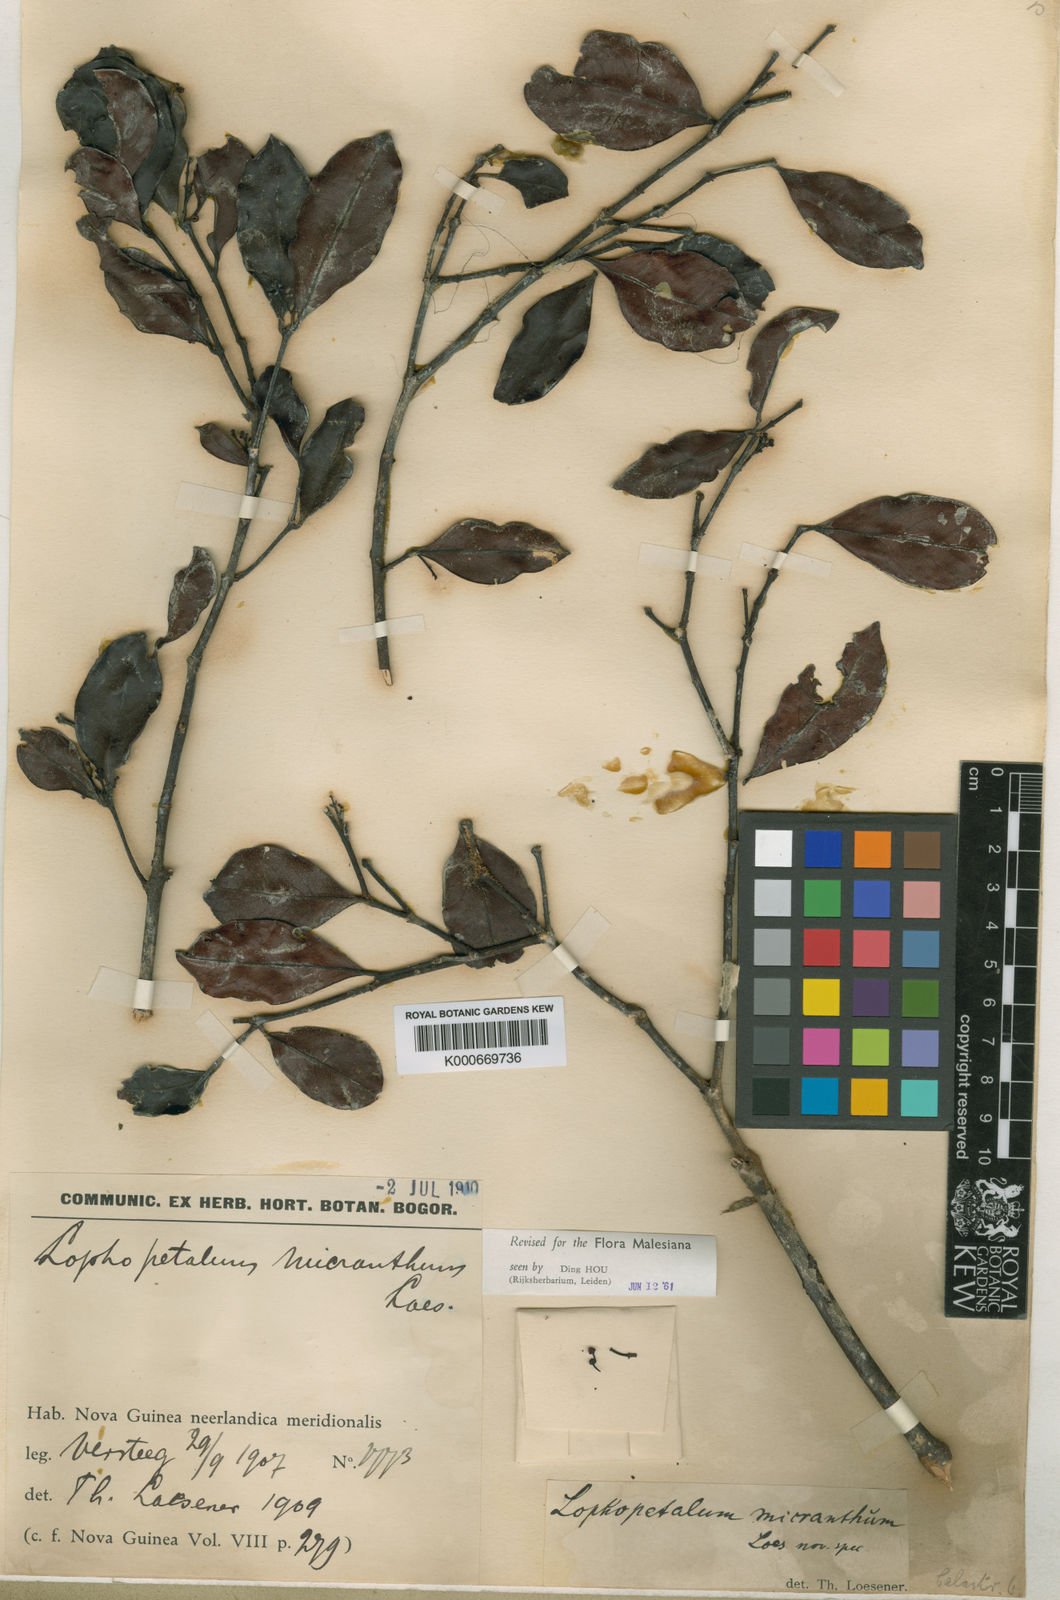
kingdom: Plantae
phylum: Tracheophyta
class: Magnoliopsida
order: Celastrales
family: Celastraceae
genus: Lophopetalum
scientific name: Lophopetalum micranthum
